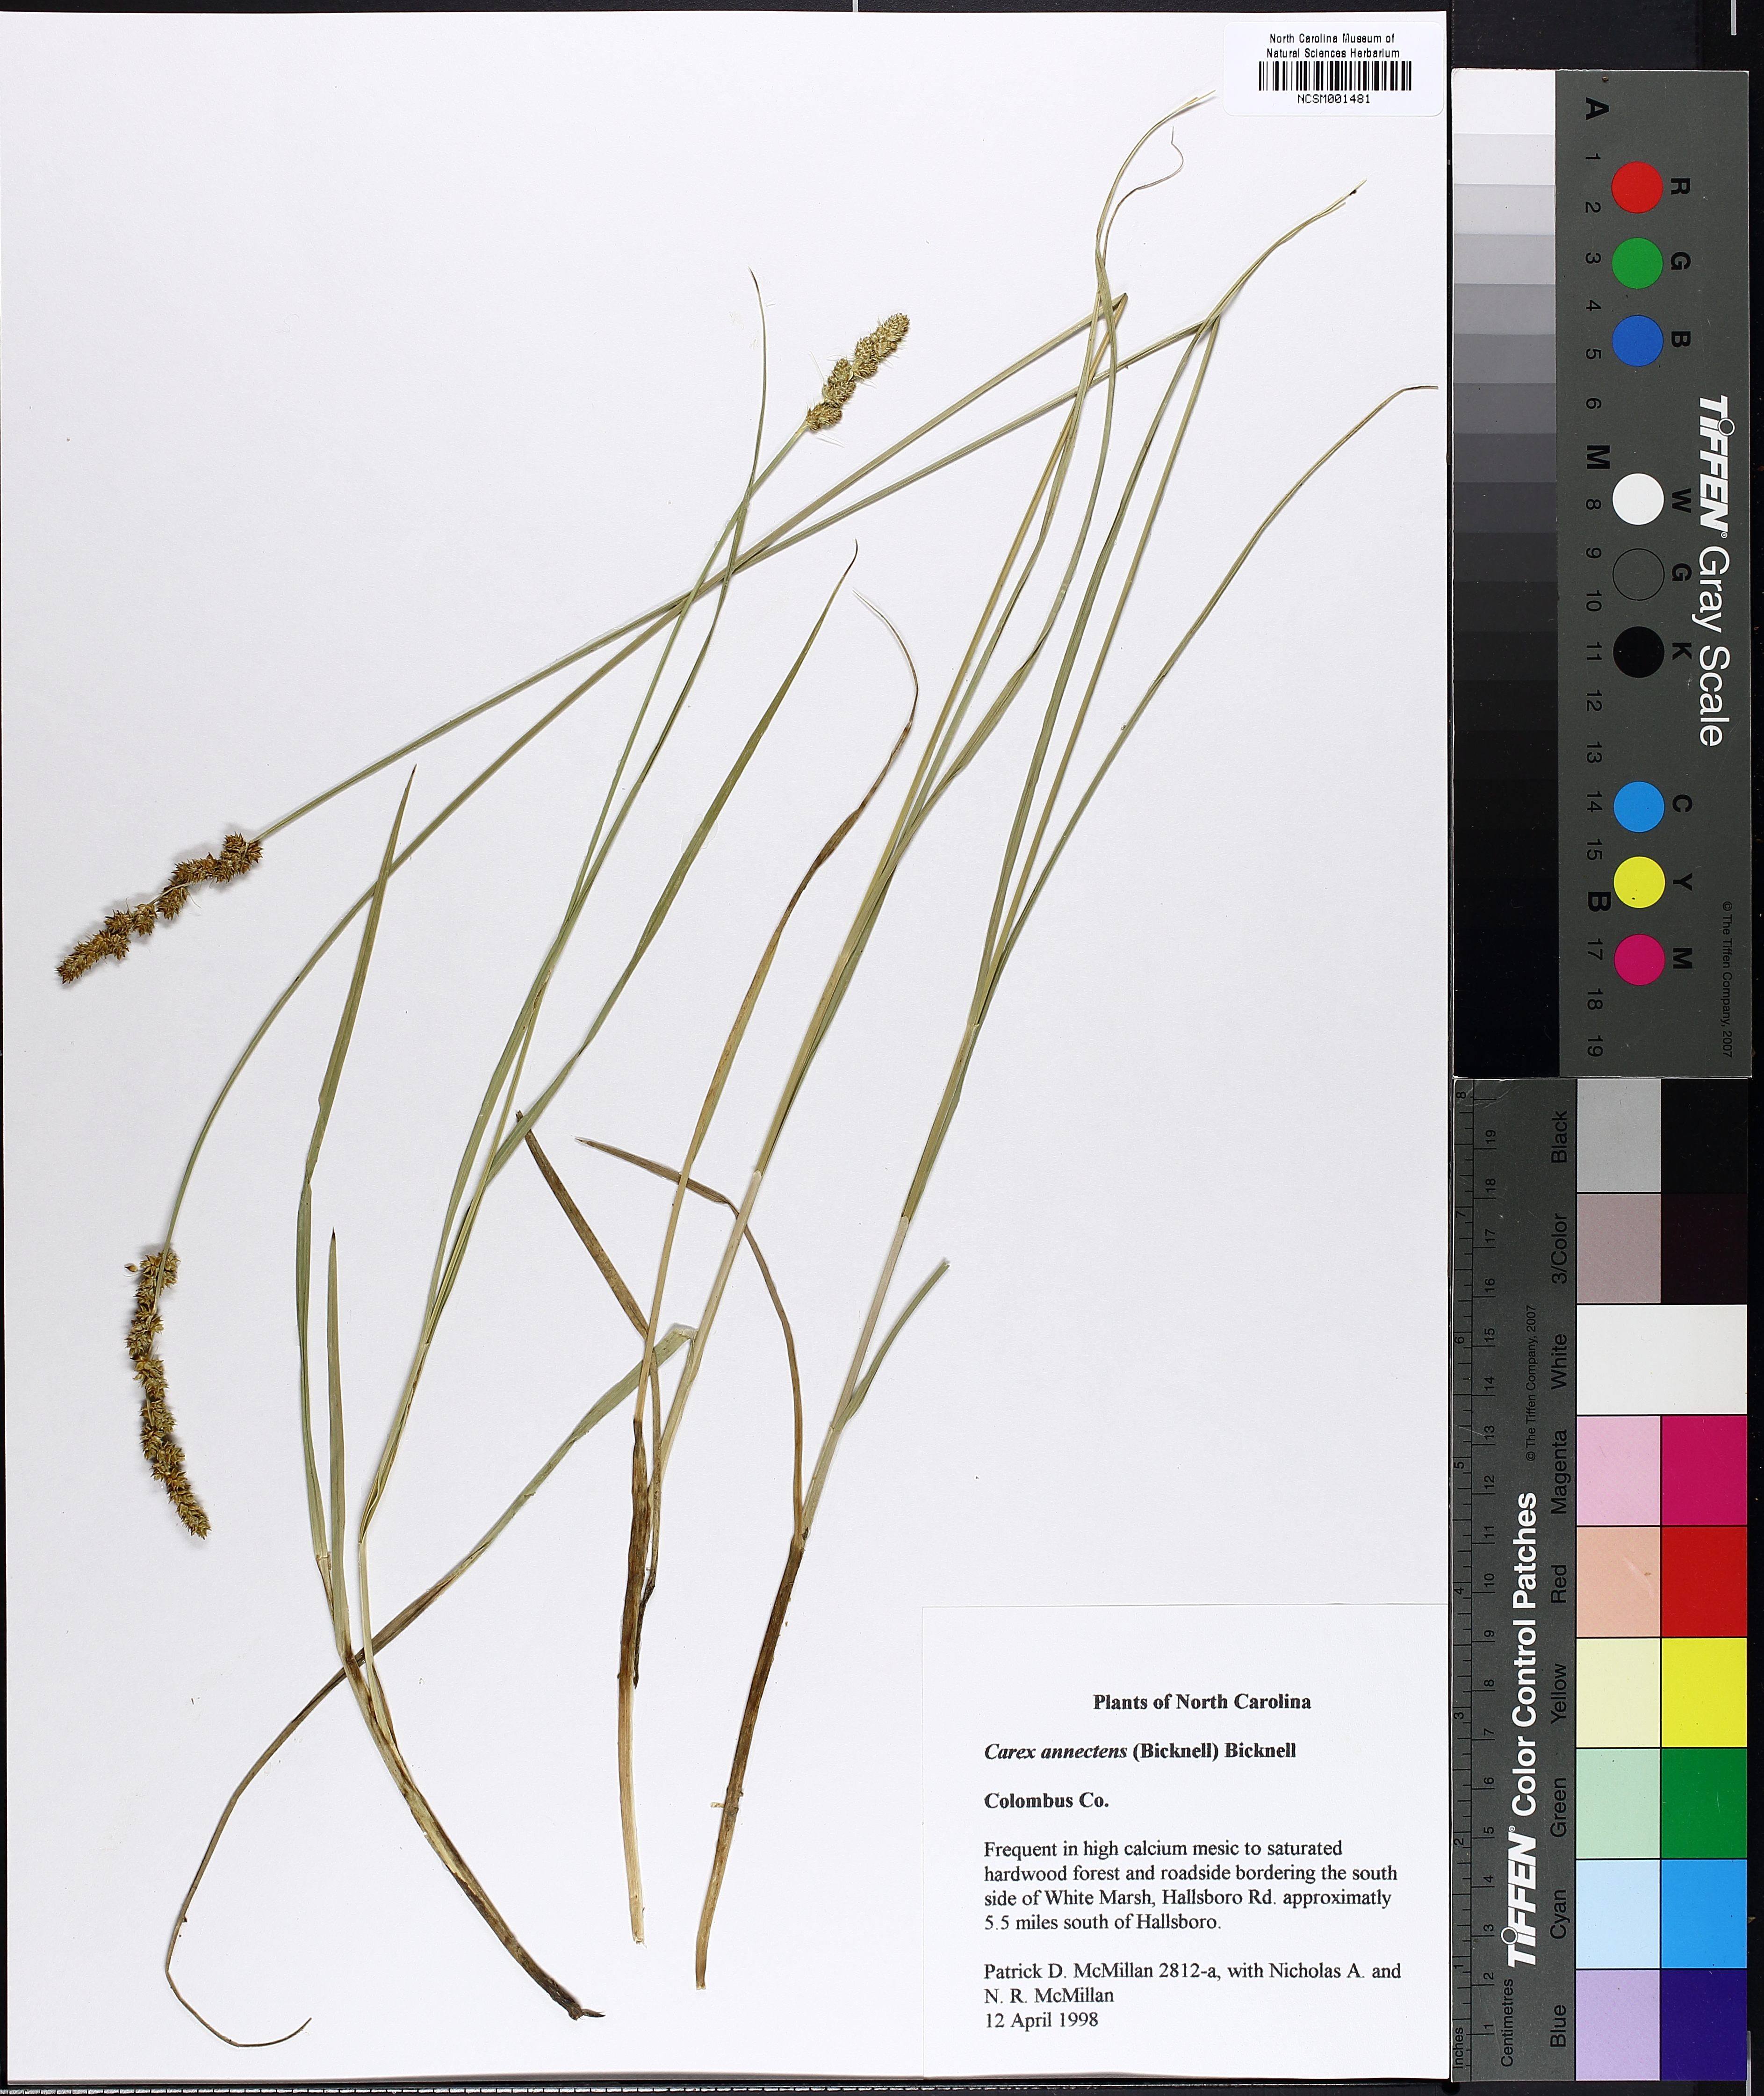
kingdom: Plantae
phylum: Tracheophyta
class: Liliopsida
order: Poales
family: Cyperaceae
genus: Carex
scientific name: Carex annectens
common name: Large fox sedge
